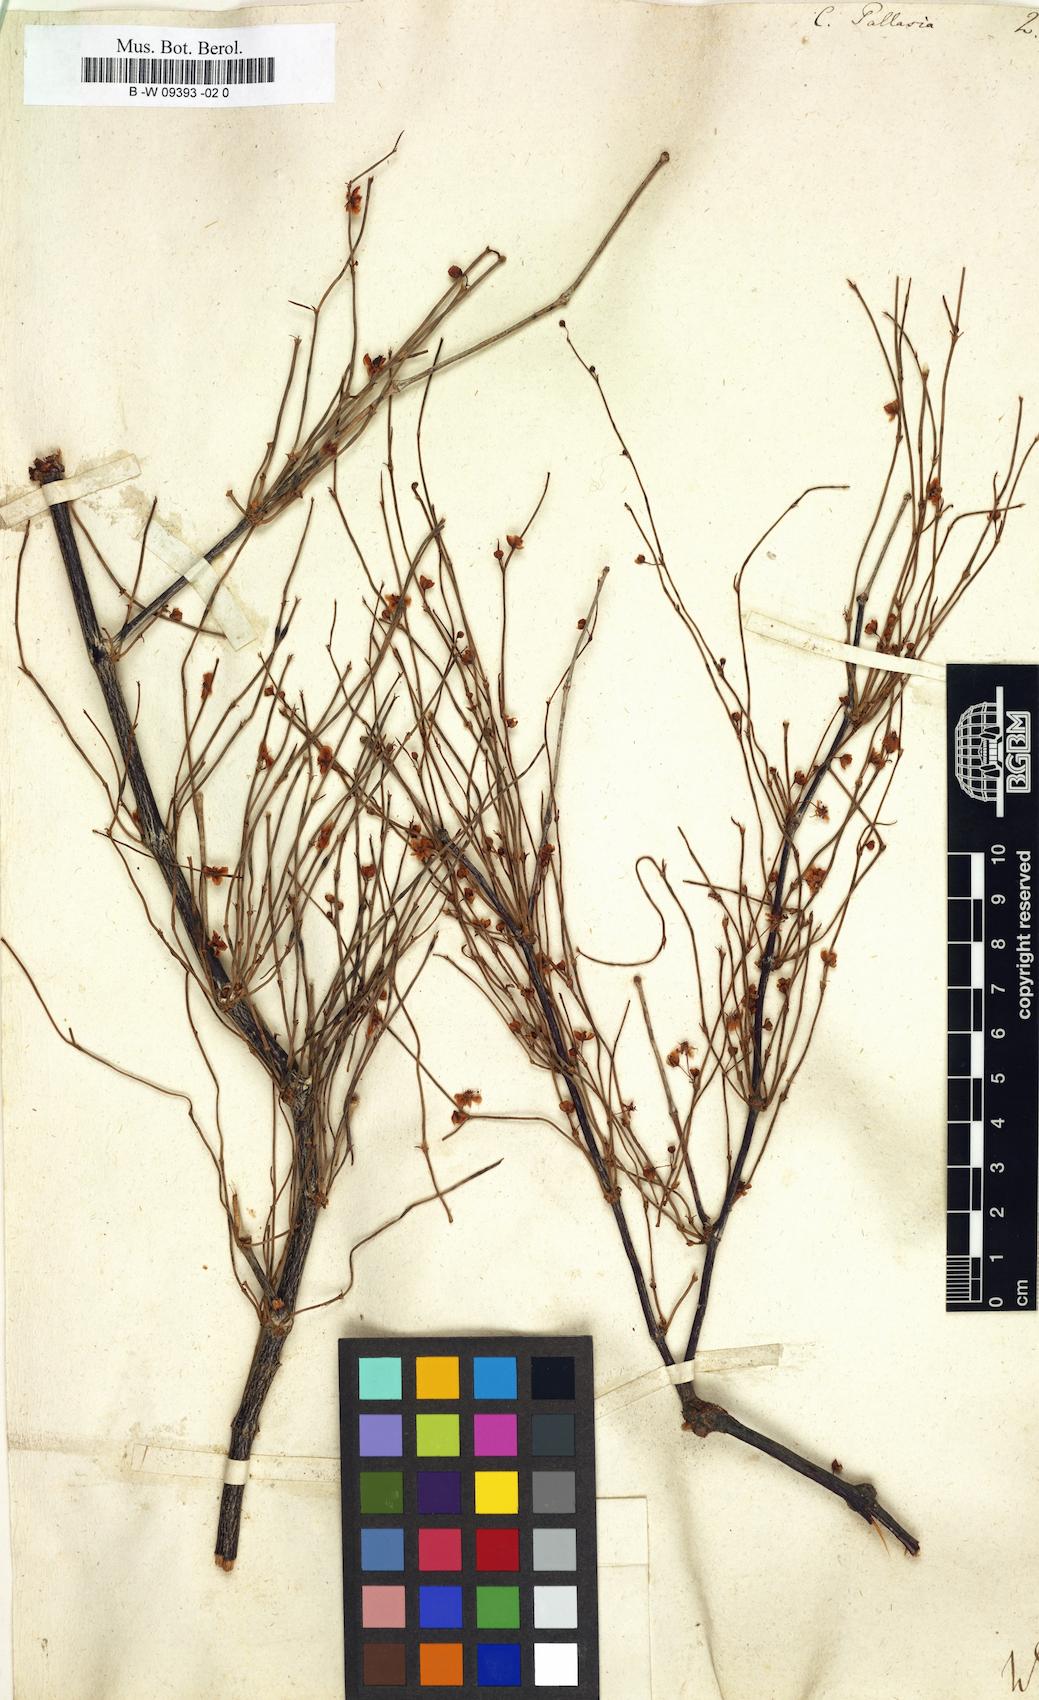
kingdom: Plantae
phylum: Tracheophyta
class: Magnoliopsida
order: Caryophyllales
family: Polygonaceae
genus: Calligonum
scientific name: Calligonum aphyllum
